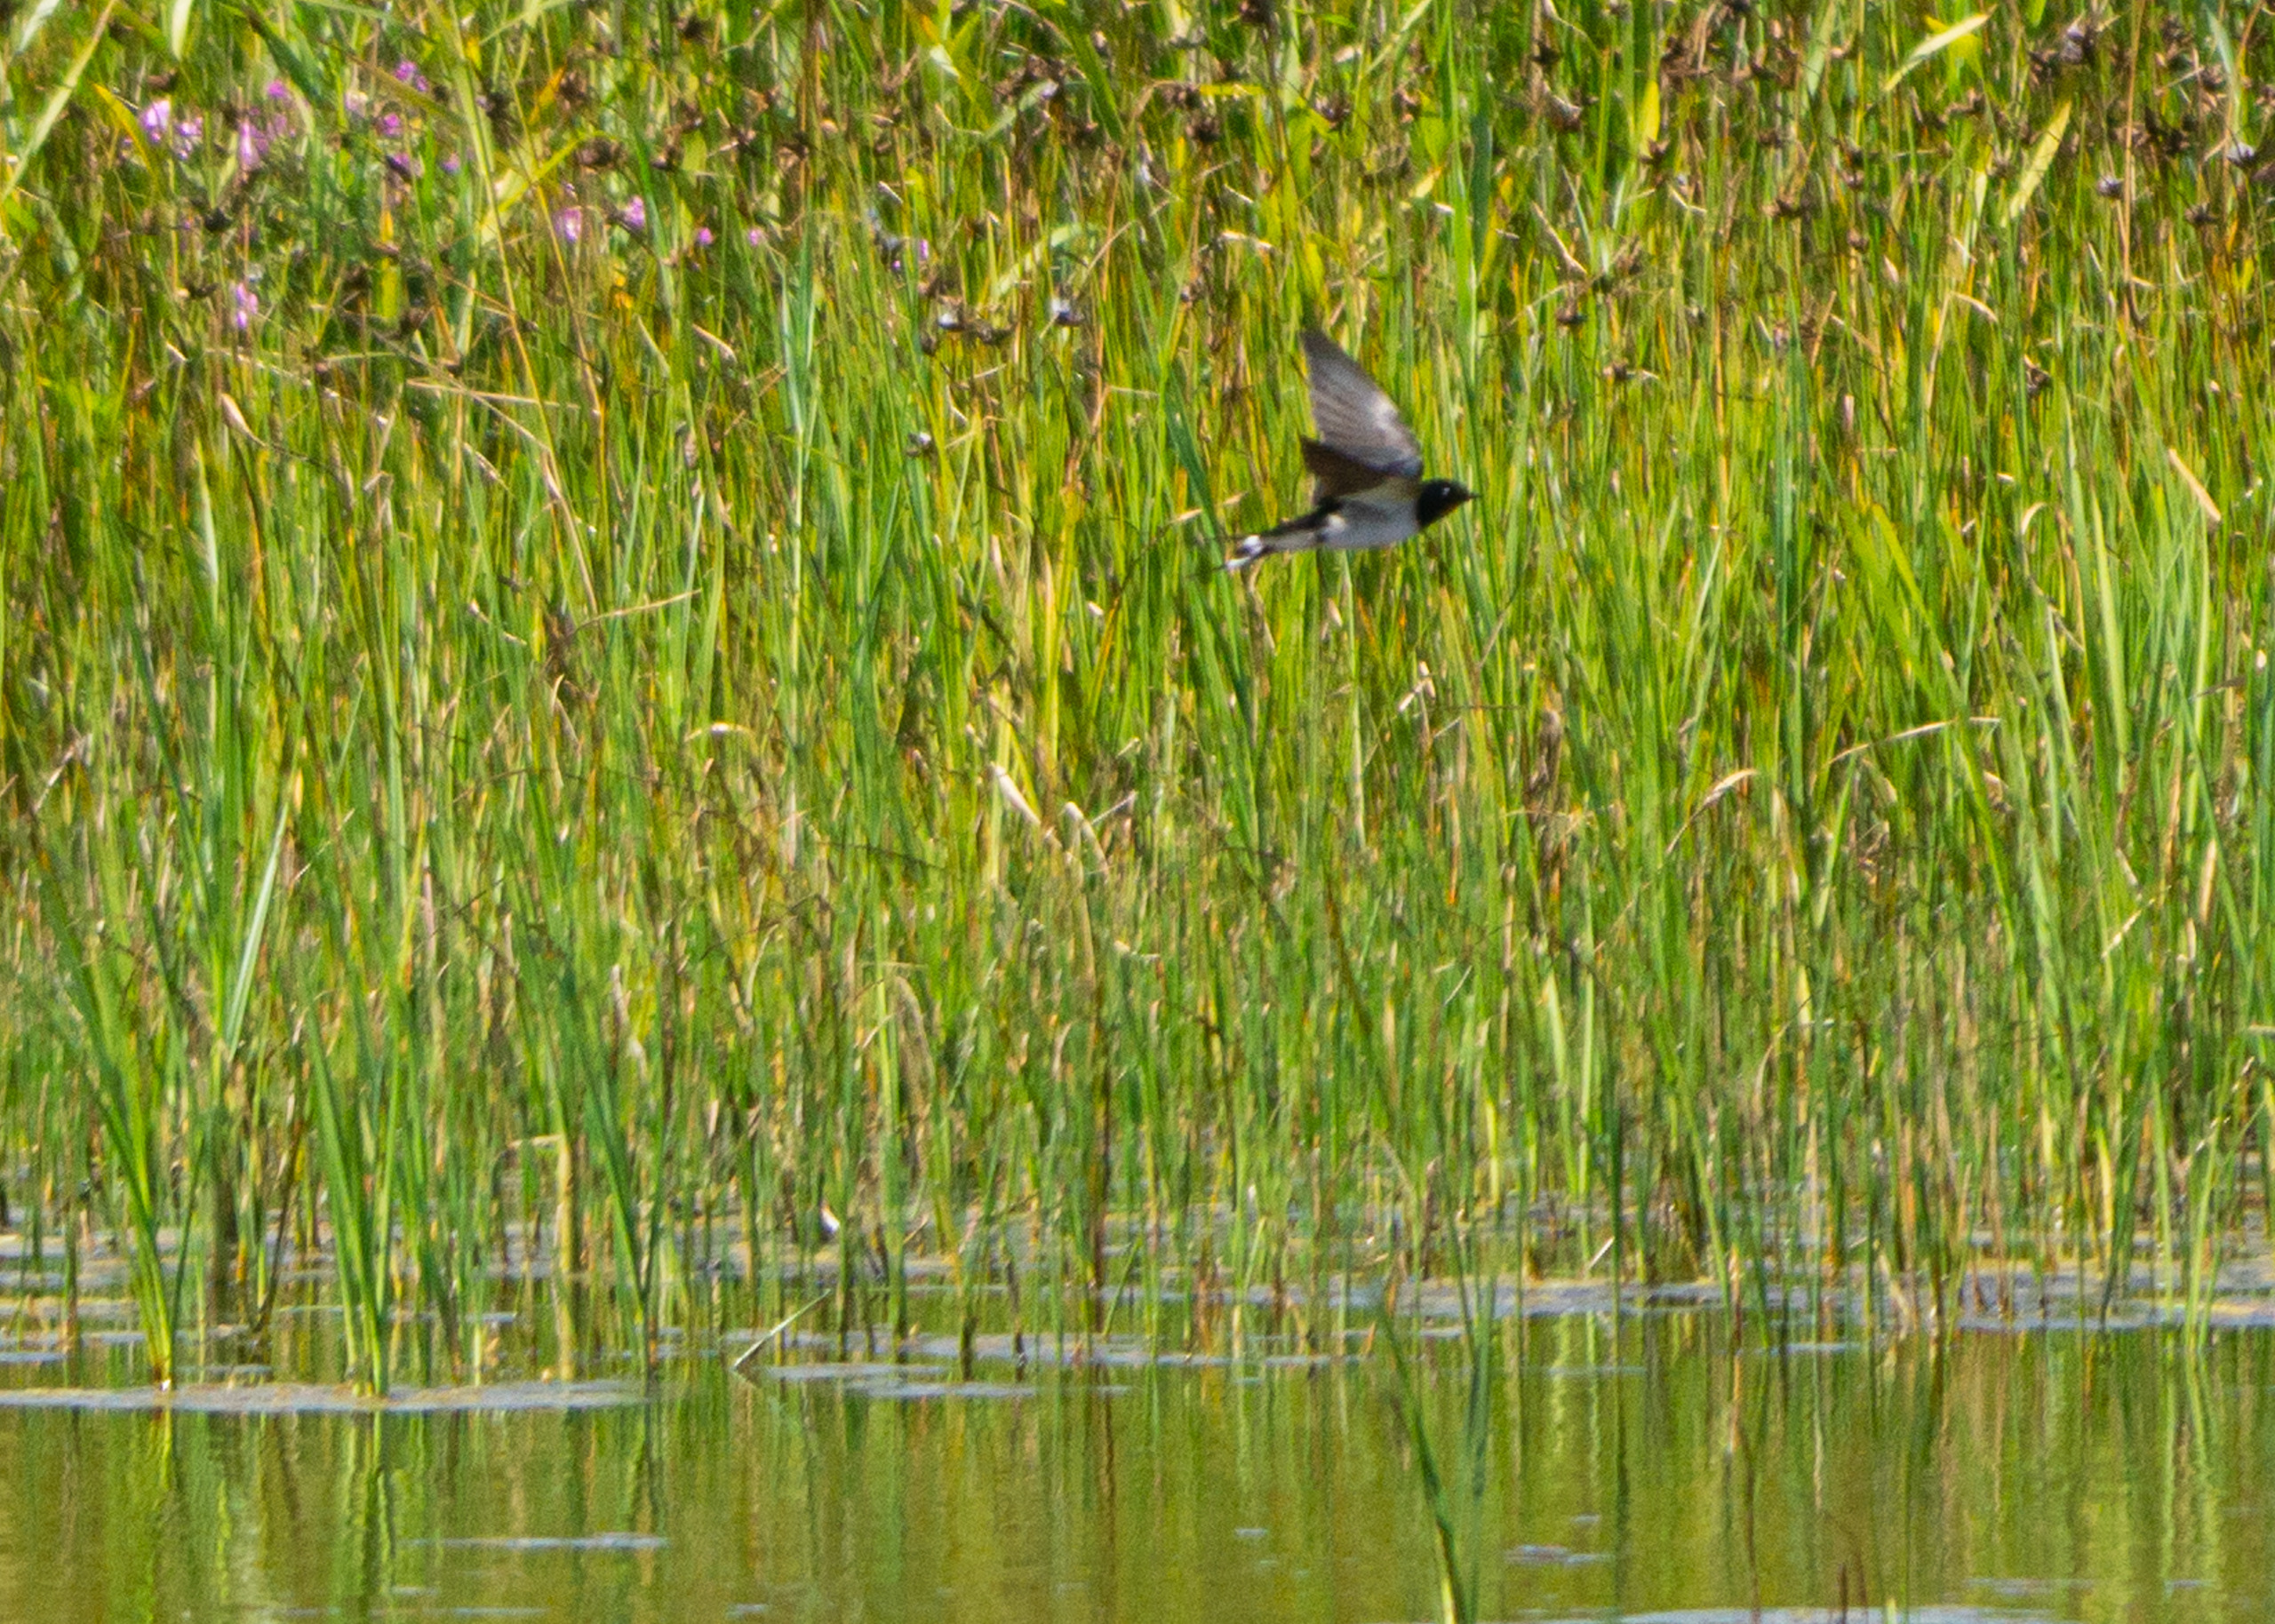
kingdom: Animalia
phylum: Chordata
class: Aves
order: Passeriformes
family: Hirundinidae
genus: Hirundo
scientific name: Hirundo rustica
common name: Landsvale
